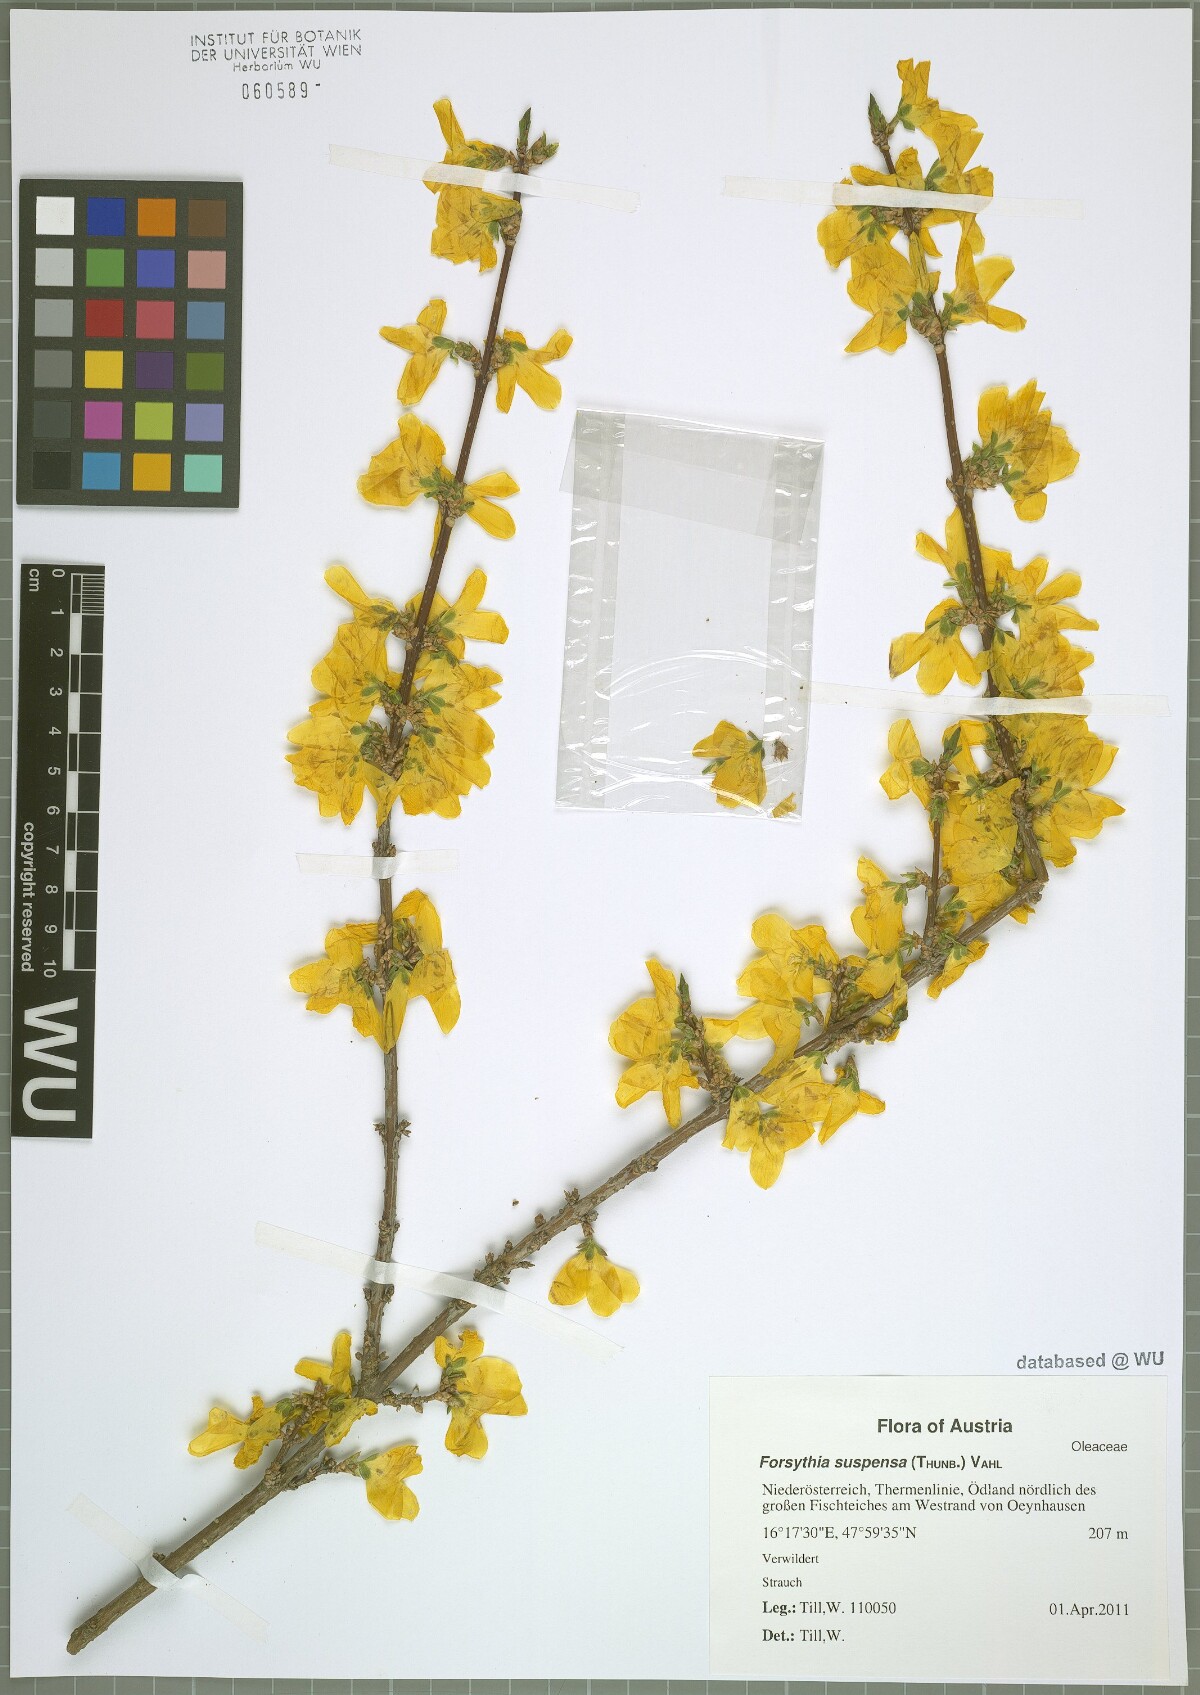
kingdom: Plantae
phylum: Tracheophyta
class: Magnoliopsida
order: Lamiales
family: Oleaceae
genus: Forsythia
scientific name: Forsythia suspensa
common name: Weeping forsythia
